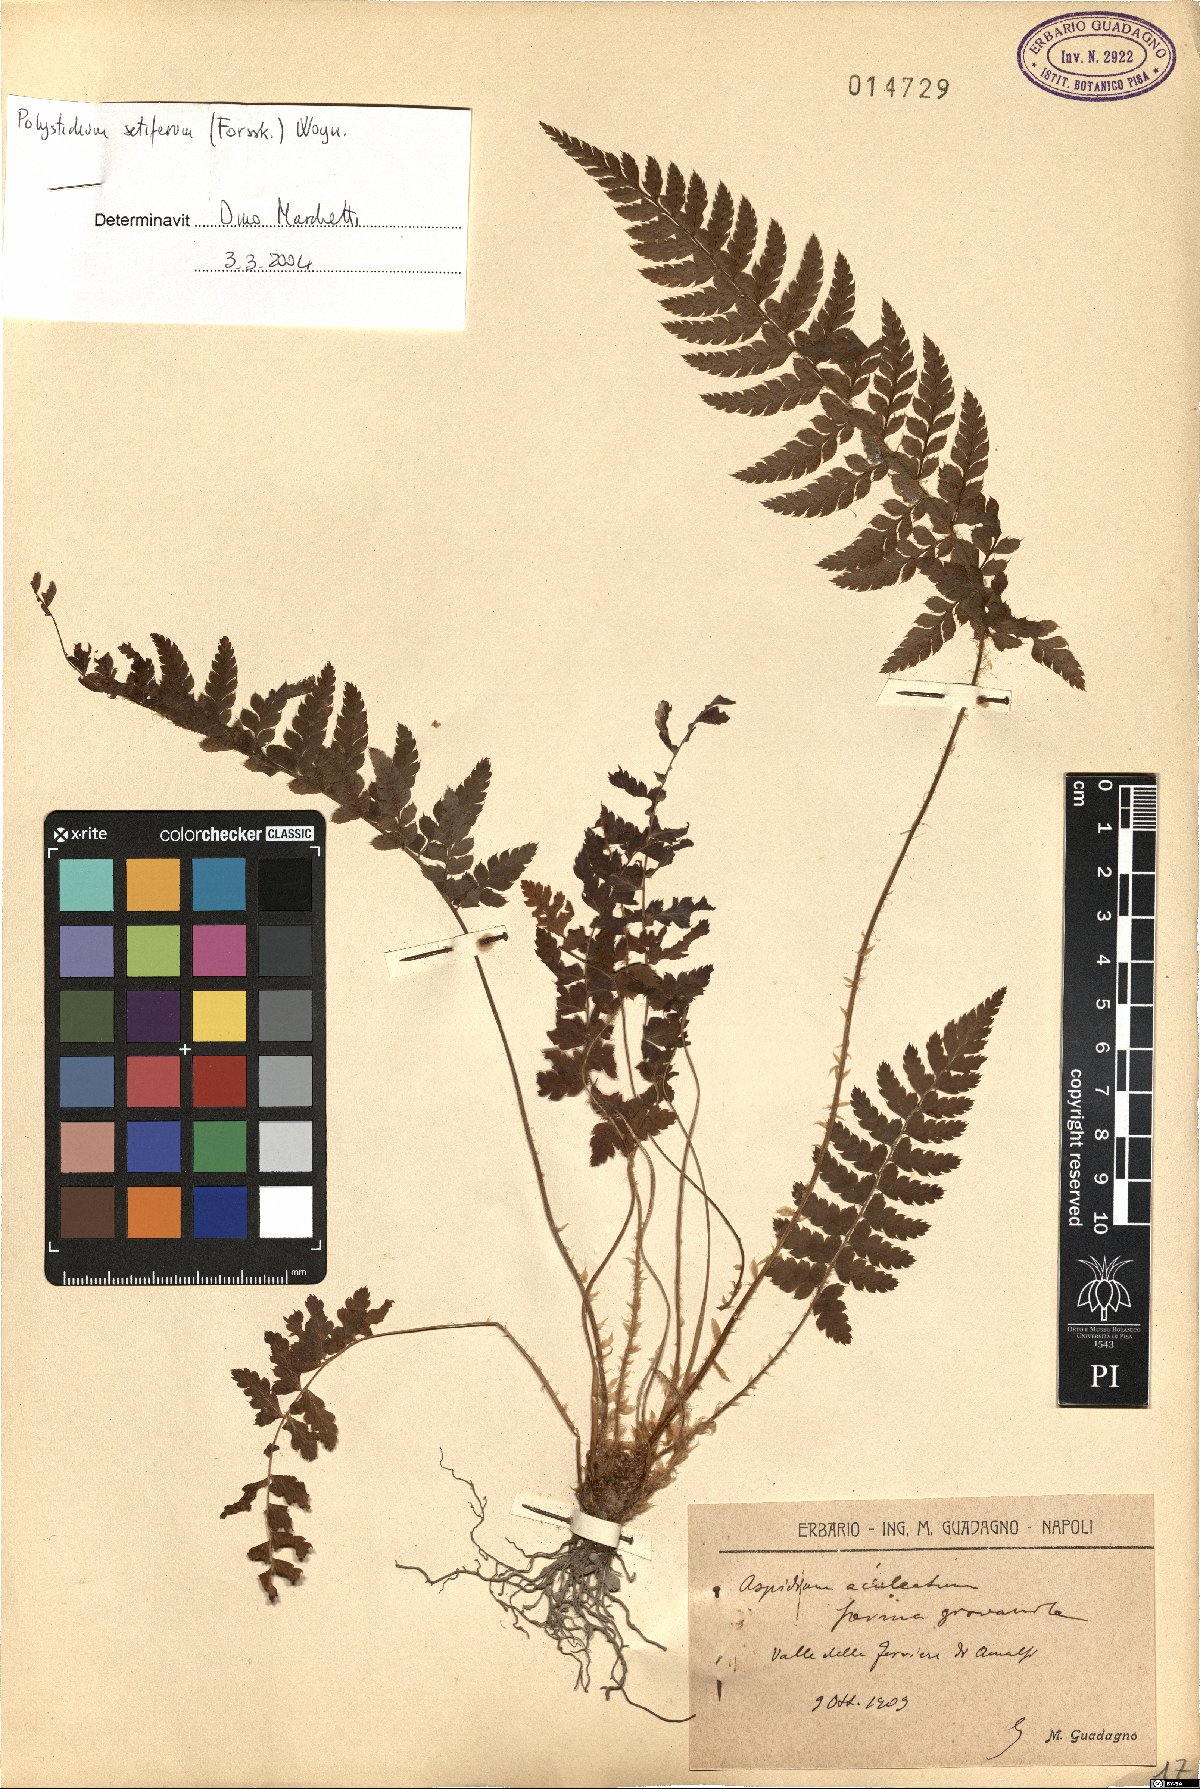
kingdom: Plantae
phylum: Tracheophyta
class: Polypodiopsida
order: Polypodiales
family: Dryopteridaceae
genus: Polystichum
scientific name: Polystichum setiferum
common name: Soft shield-fern
